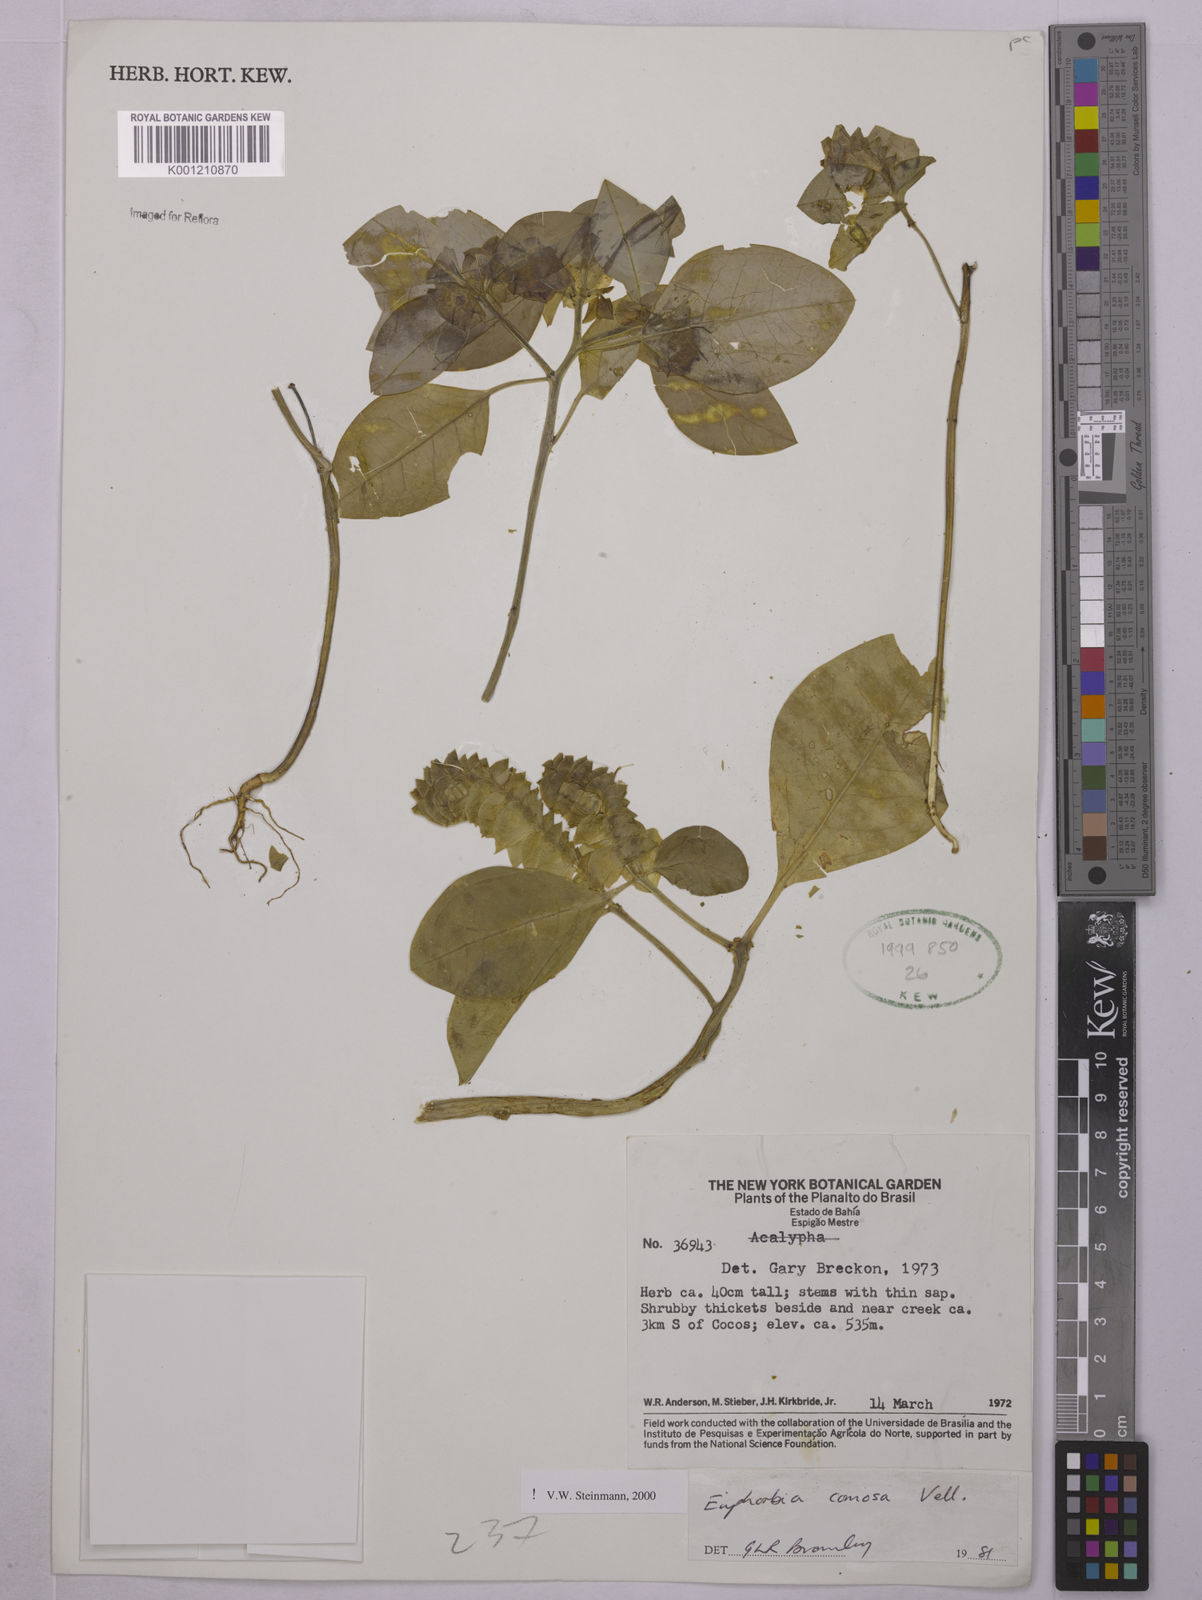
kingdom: Plantae
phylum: Tracheophyta
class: Magnoliopsida
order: Malpighiales
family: Euphorbiaceae
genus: Euphorbia
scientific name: Euphorbia comosa
